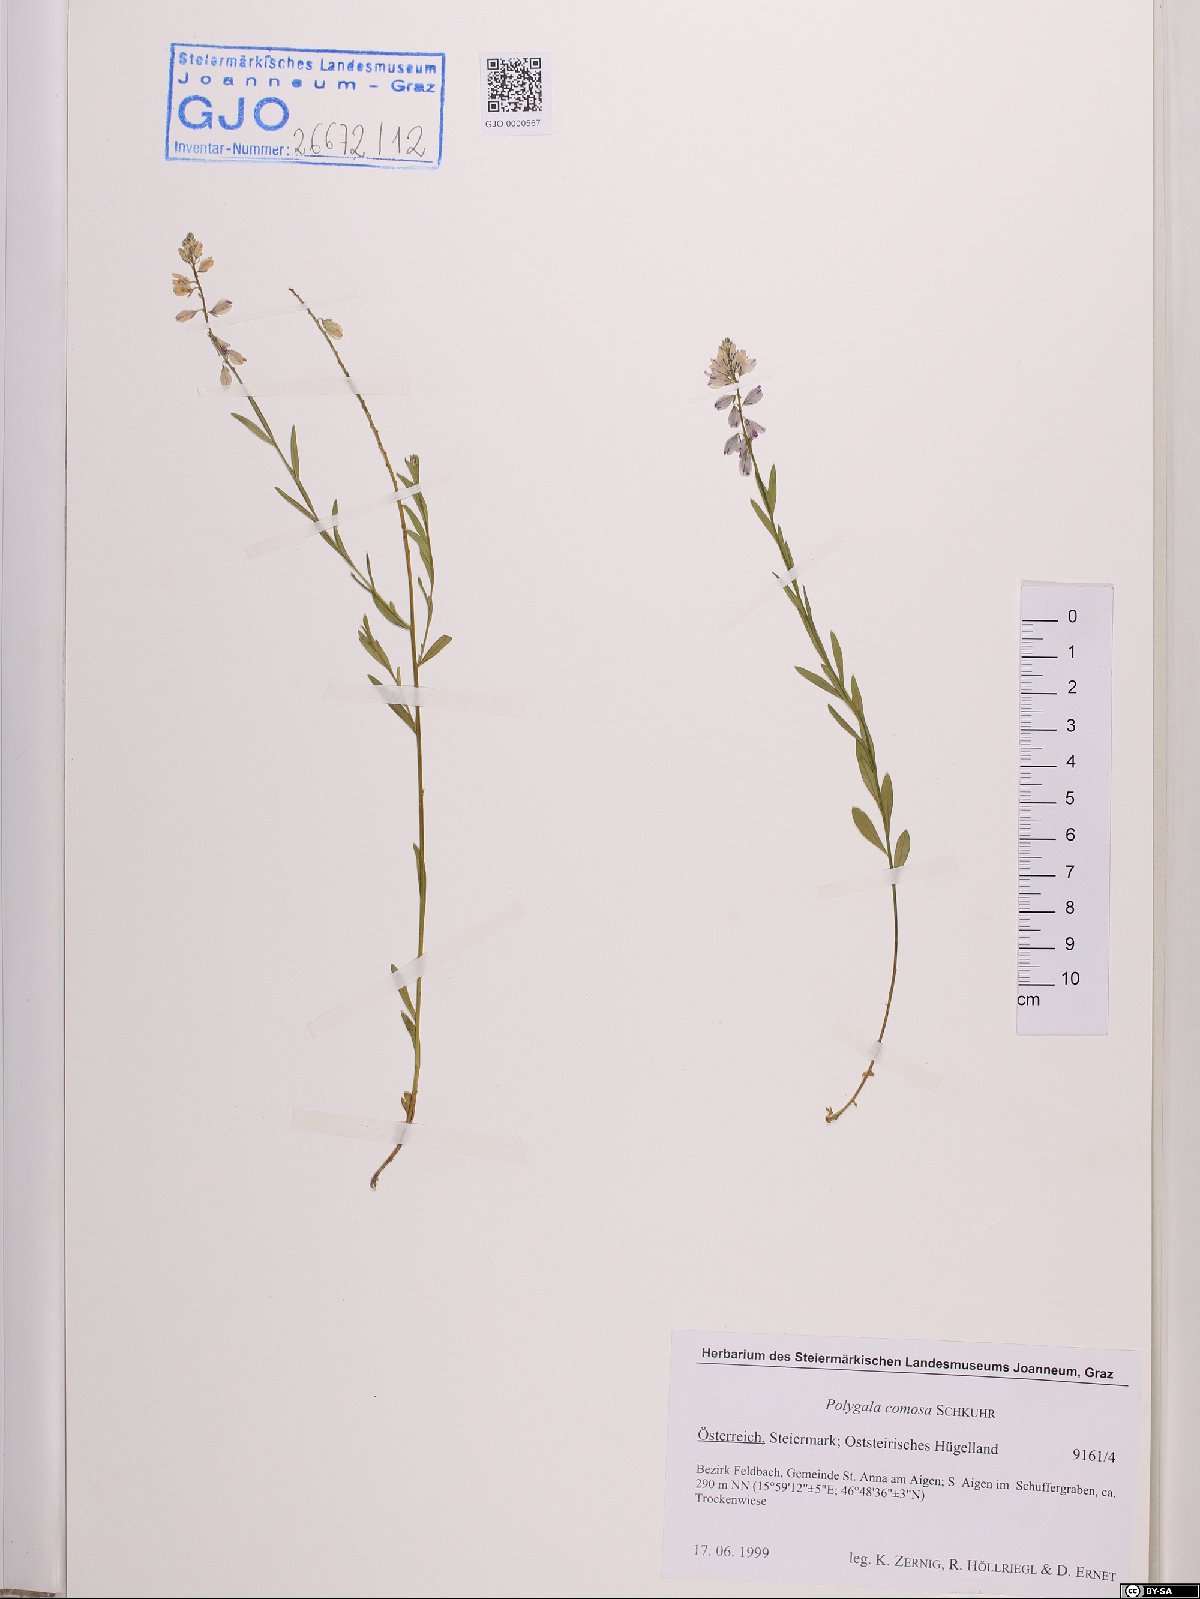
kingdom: Plantae
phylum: Tracheophyta
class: Magnoliopsida
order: Fabales
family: Polygalaceae
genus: Polygala
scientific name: Polygala comosa
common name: Tufted milkwort
